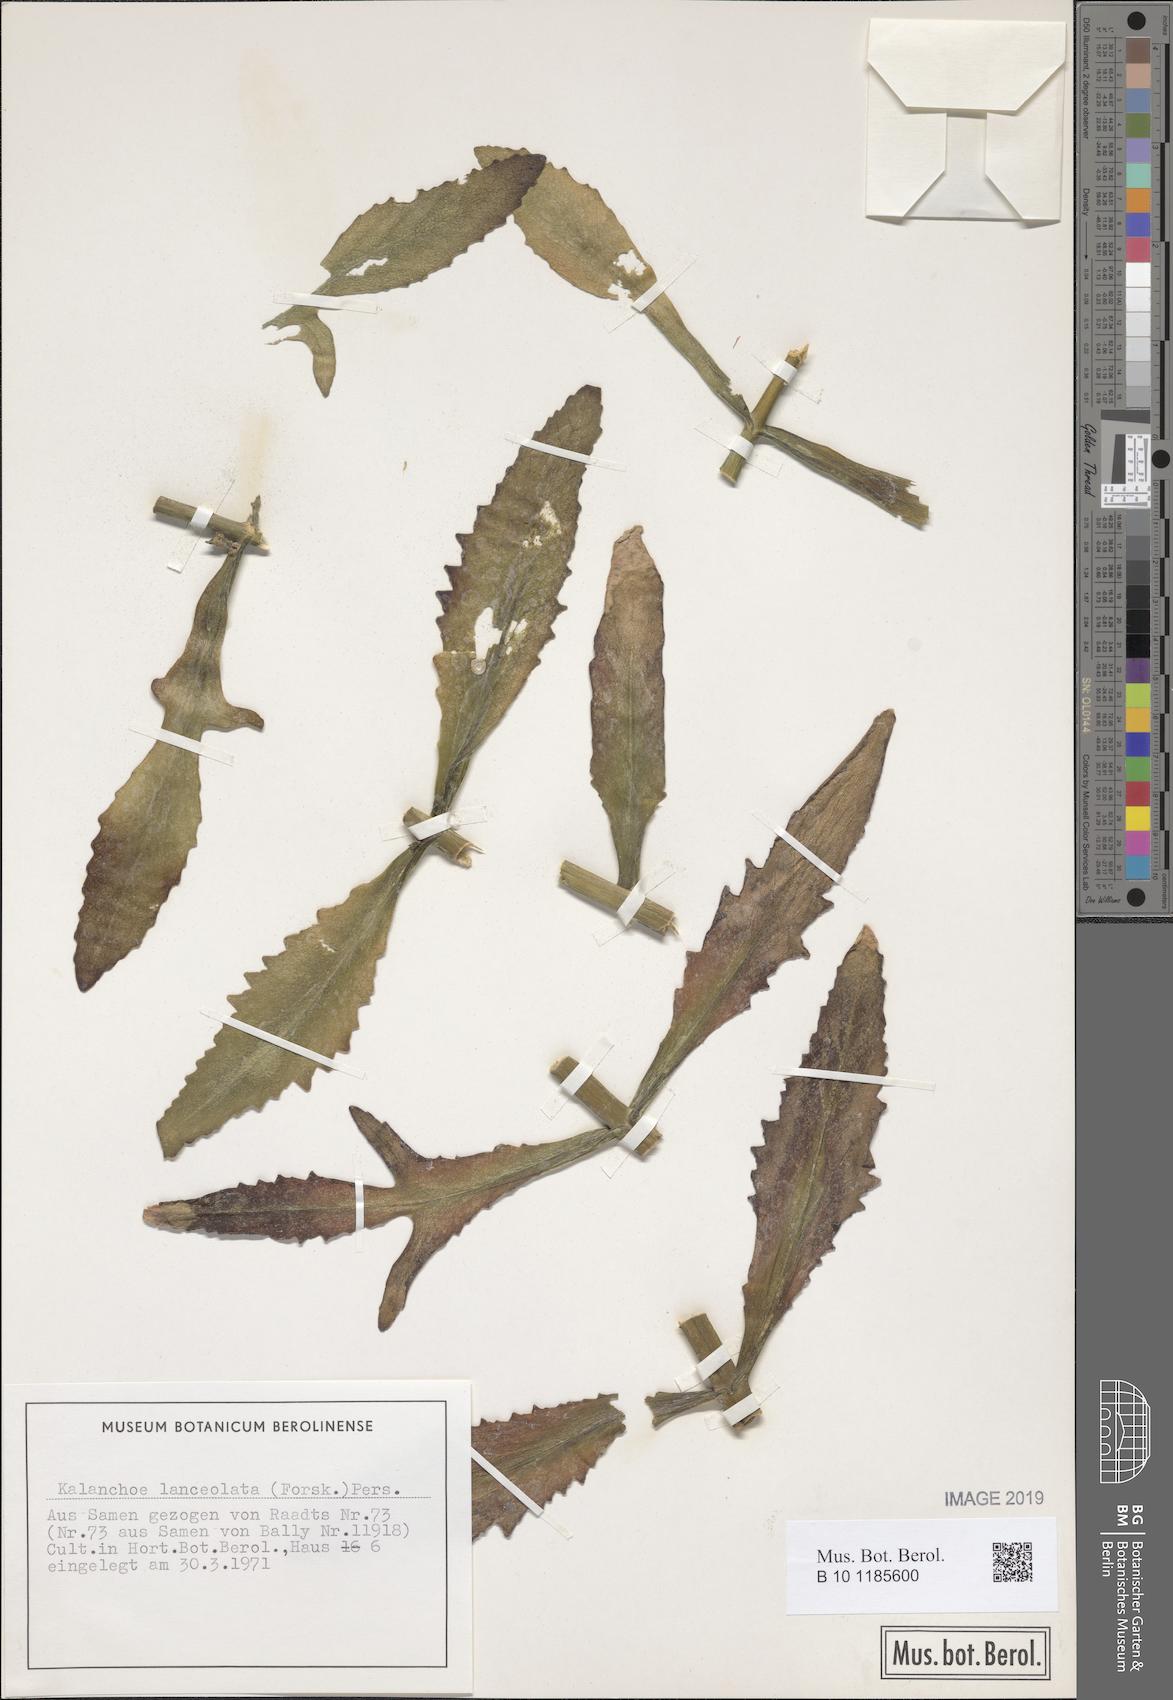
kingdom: Plantae
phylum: Tracheophyta
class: Magnoliopsida
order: Saxifragales
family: Crassulaceae
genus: Kalanchoe
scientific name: Kalanchoe lanceolata
